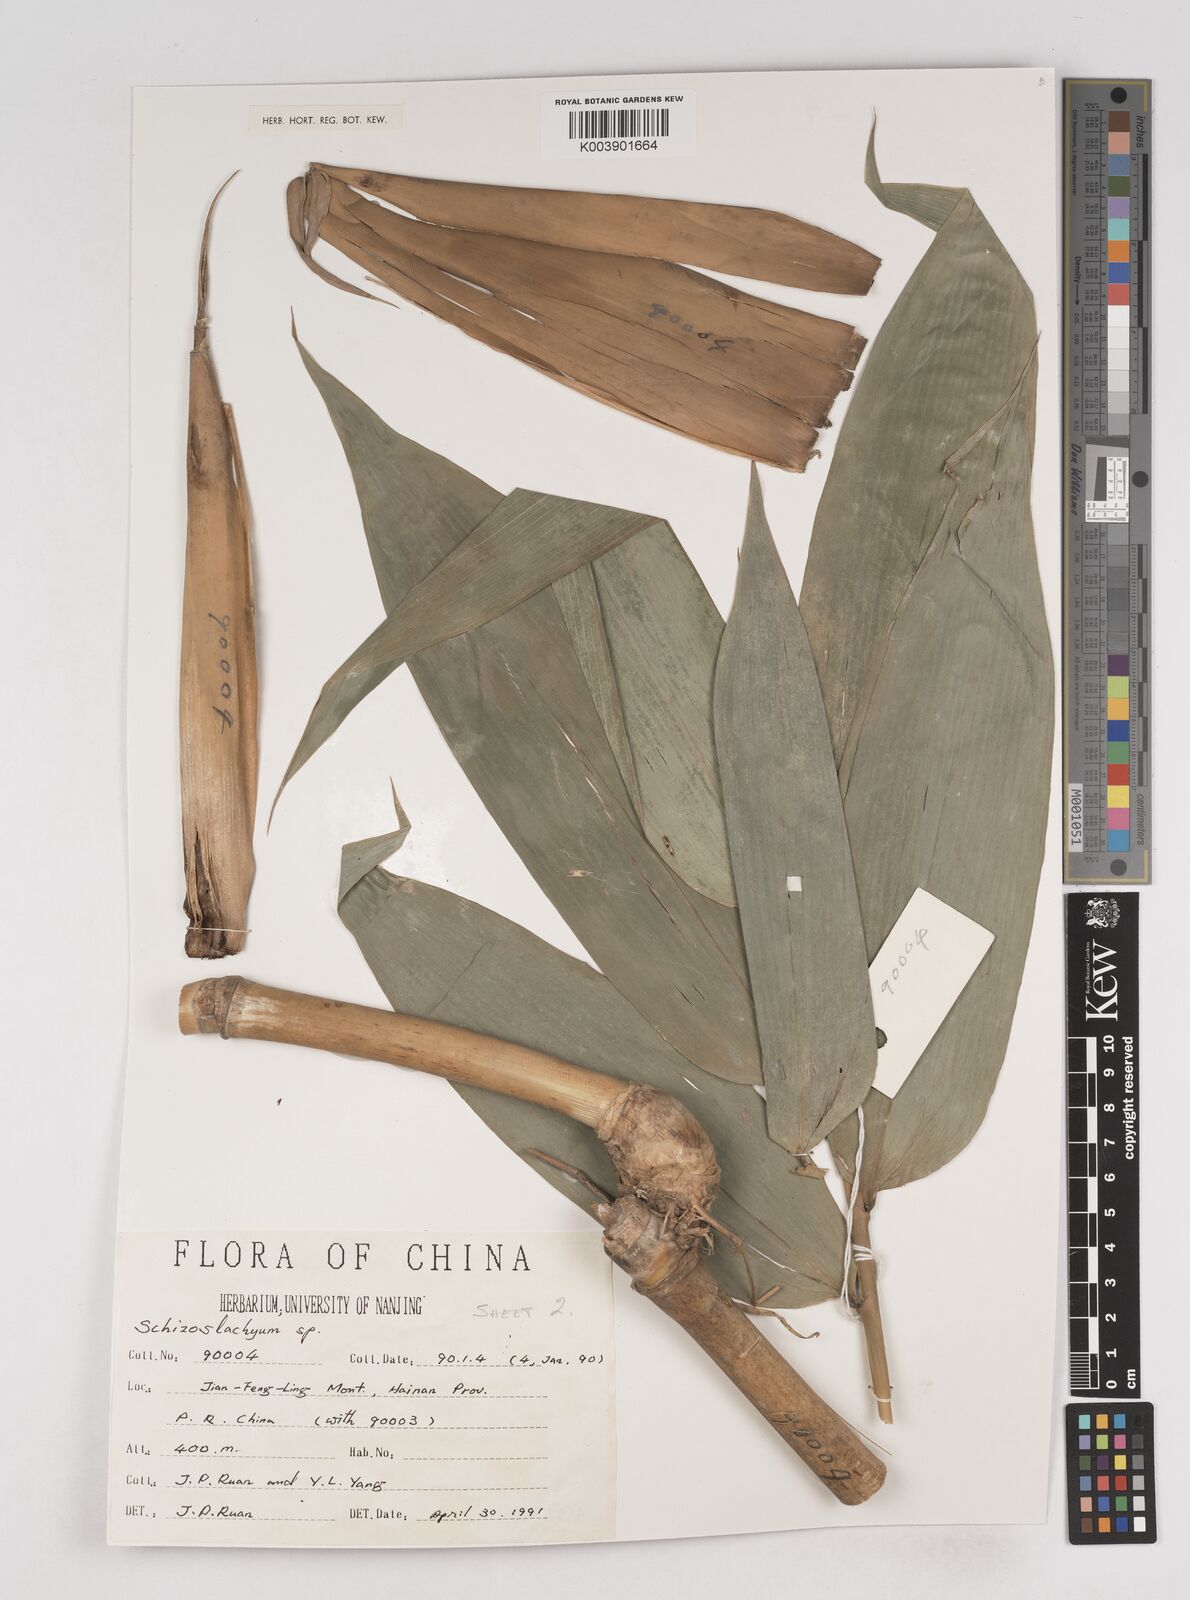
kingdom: Plantae
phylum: Tracheophyta
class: Liliopsida
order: Poales
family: Poaceae
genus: Schizostachyum
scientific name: Schizostachyum
